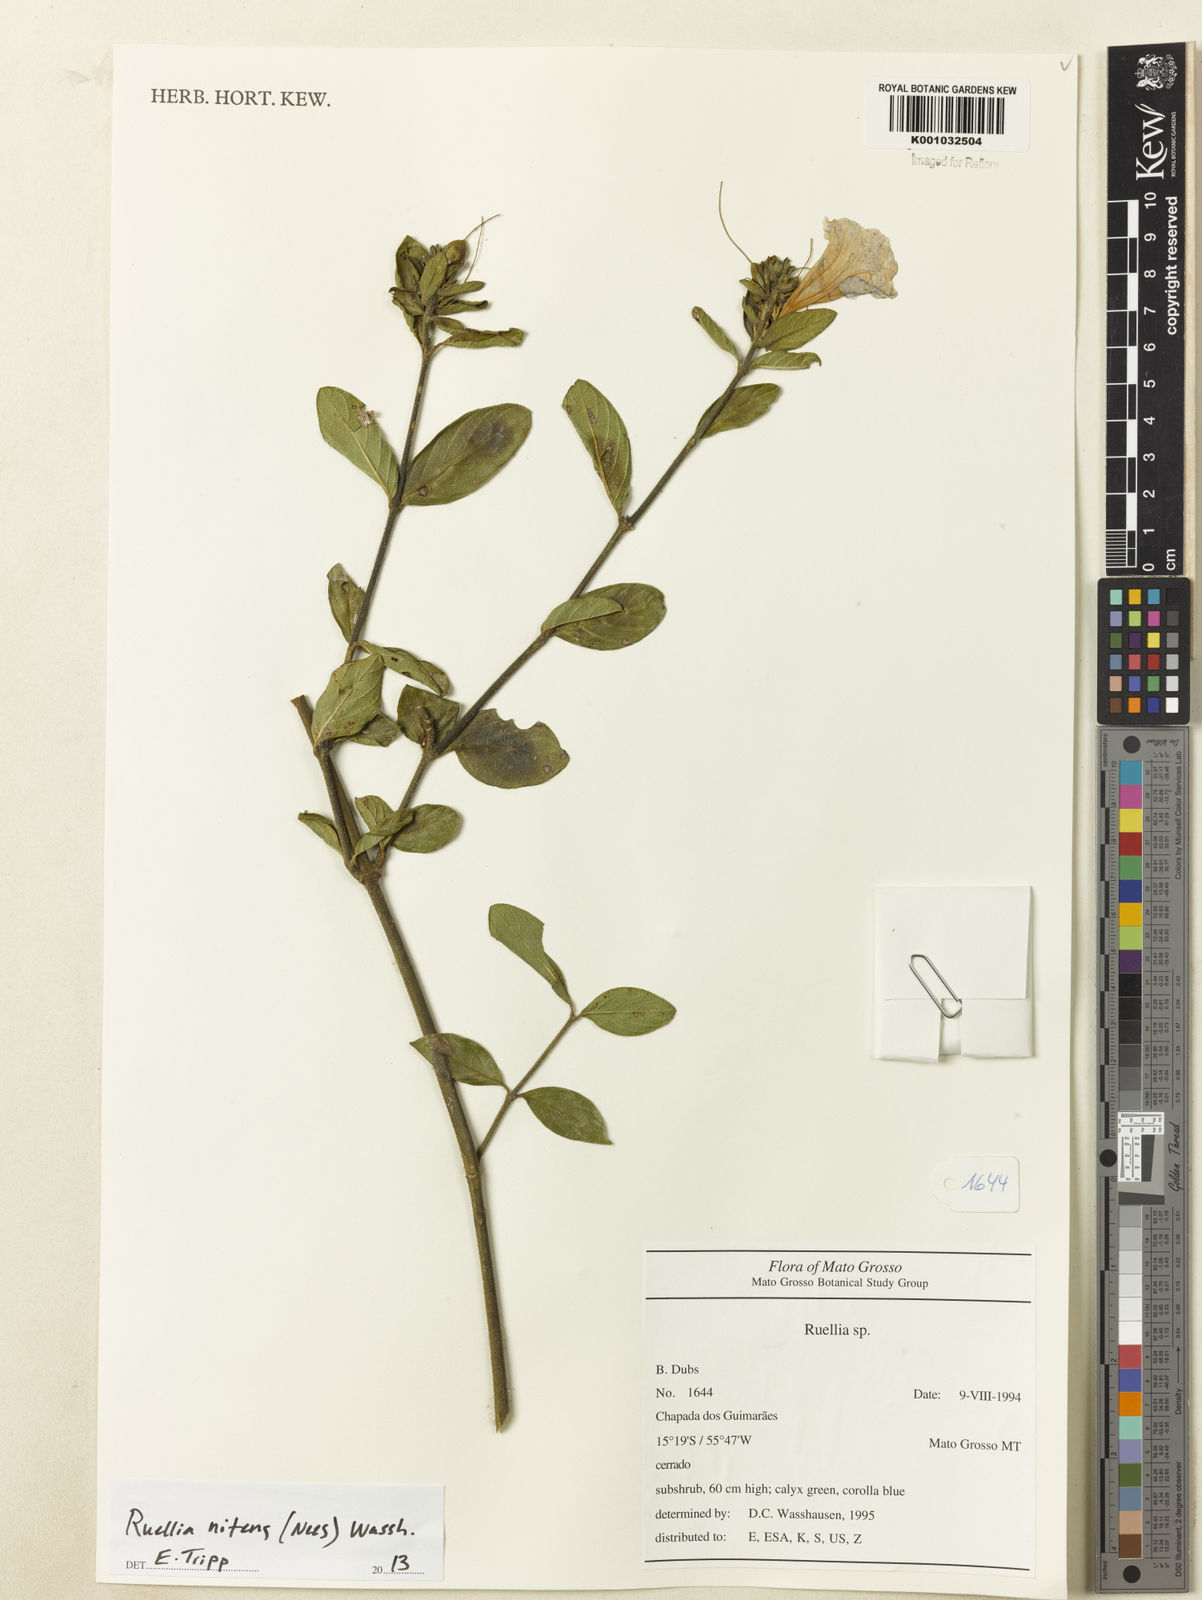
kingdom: Plantae
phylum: Tracheophyta
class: Magnoliopsida
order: Lamiales
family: Acanthaceae
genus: Ruellia
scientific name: Ruellia nitens
